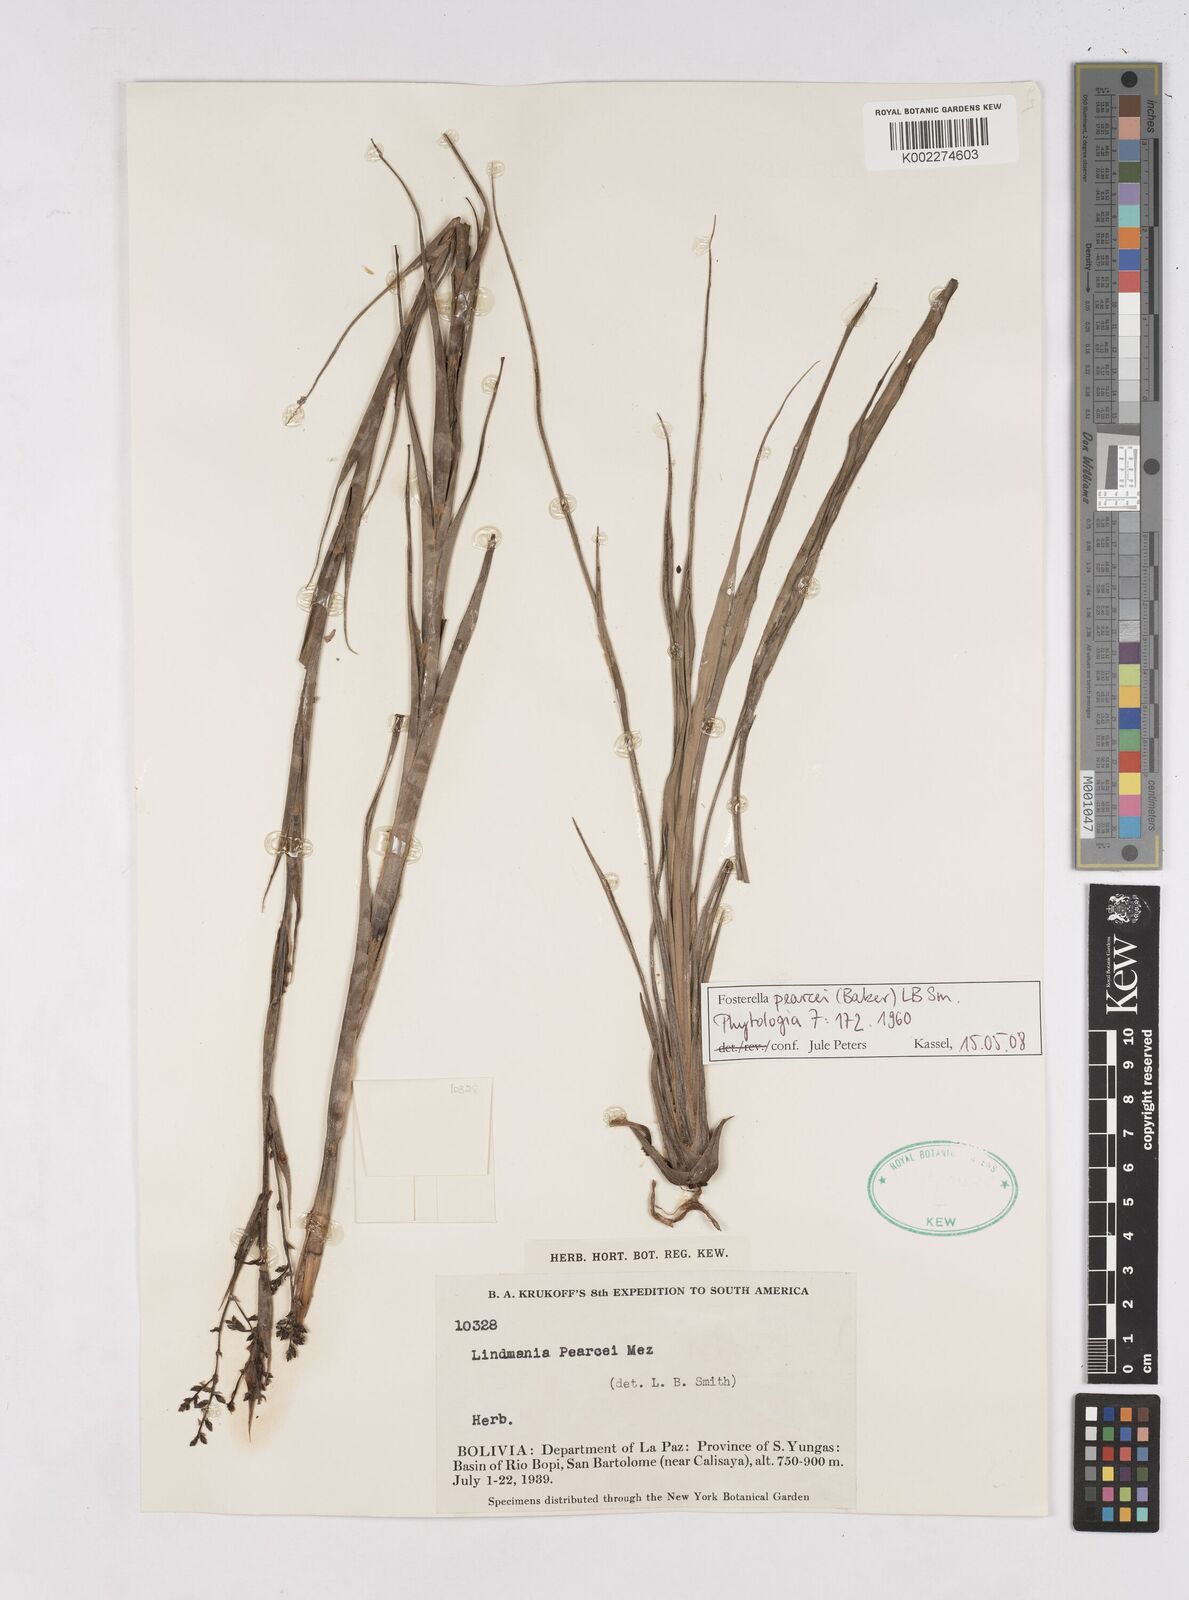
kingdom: Plantae
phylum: Tracheophyta
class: Liliopsida
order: Poales
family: Bromeliaceae
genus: Fosterella
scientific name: Fosterella pearcei
